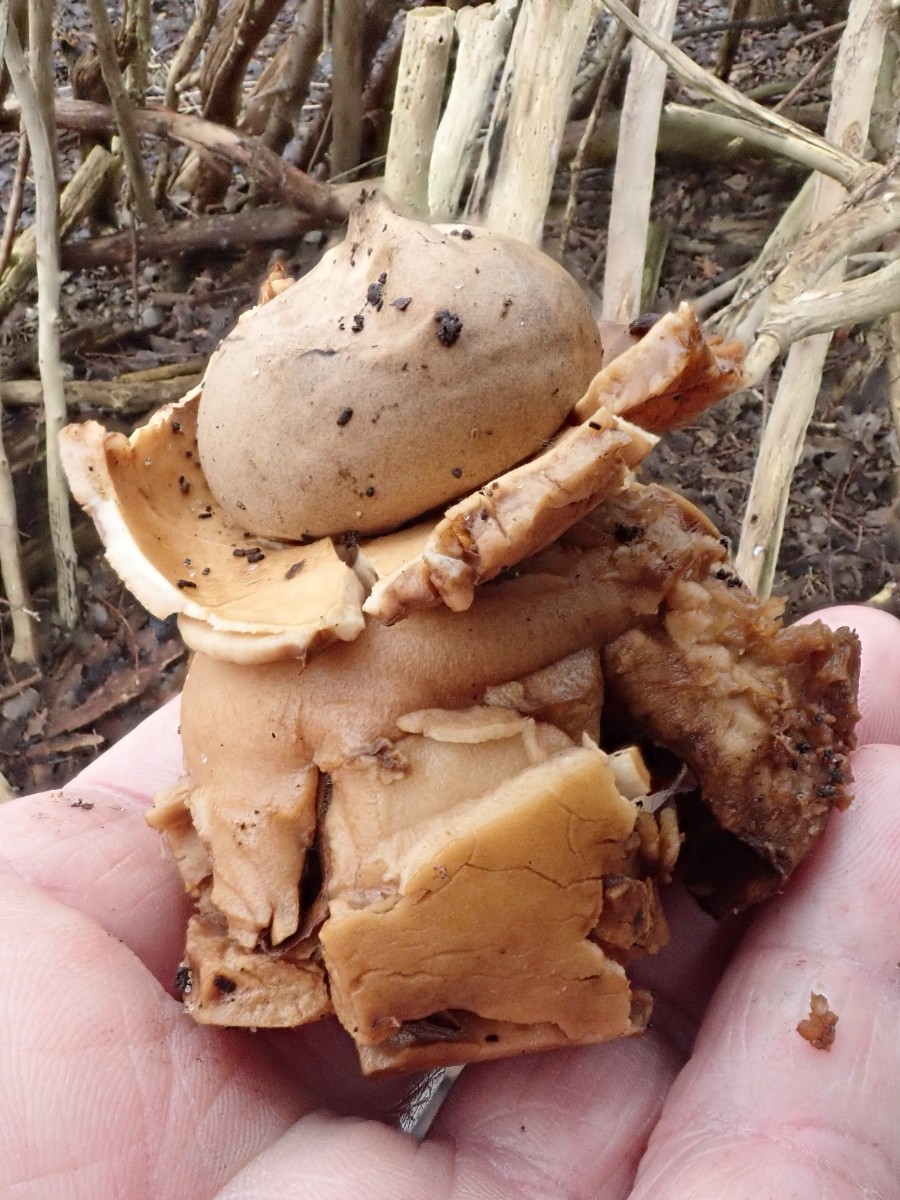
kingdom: Fungi
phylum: Basidiomycota
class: Agaricomycetes
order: Geastrales
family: Geastraceae
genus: Geastrum
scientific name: Geastrum michelianum
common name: kødet stjernebold
